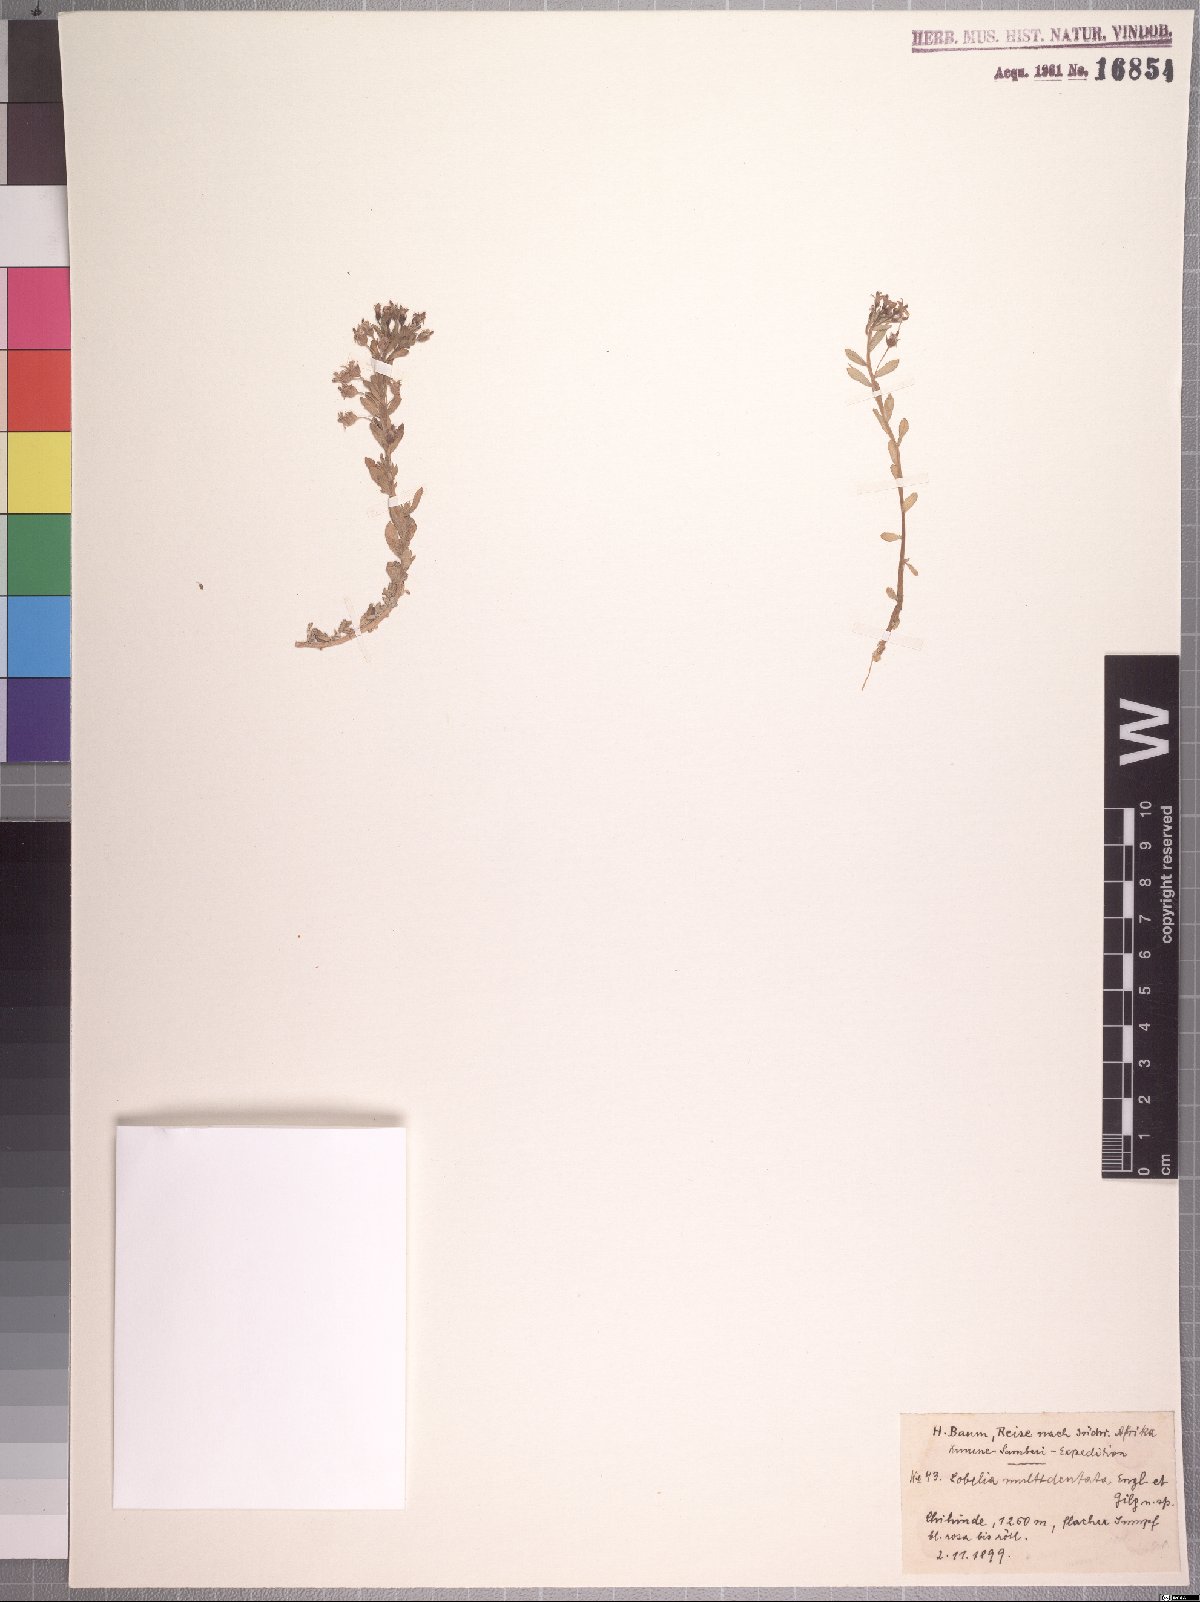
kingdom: Plantae
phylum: Tracheophyta
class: Magnoliopsida
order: Asterales
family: Campanulaceae
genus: Lobelia
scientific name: Lobelia sonderiana
